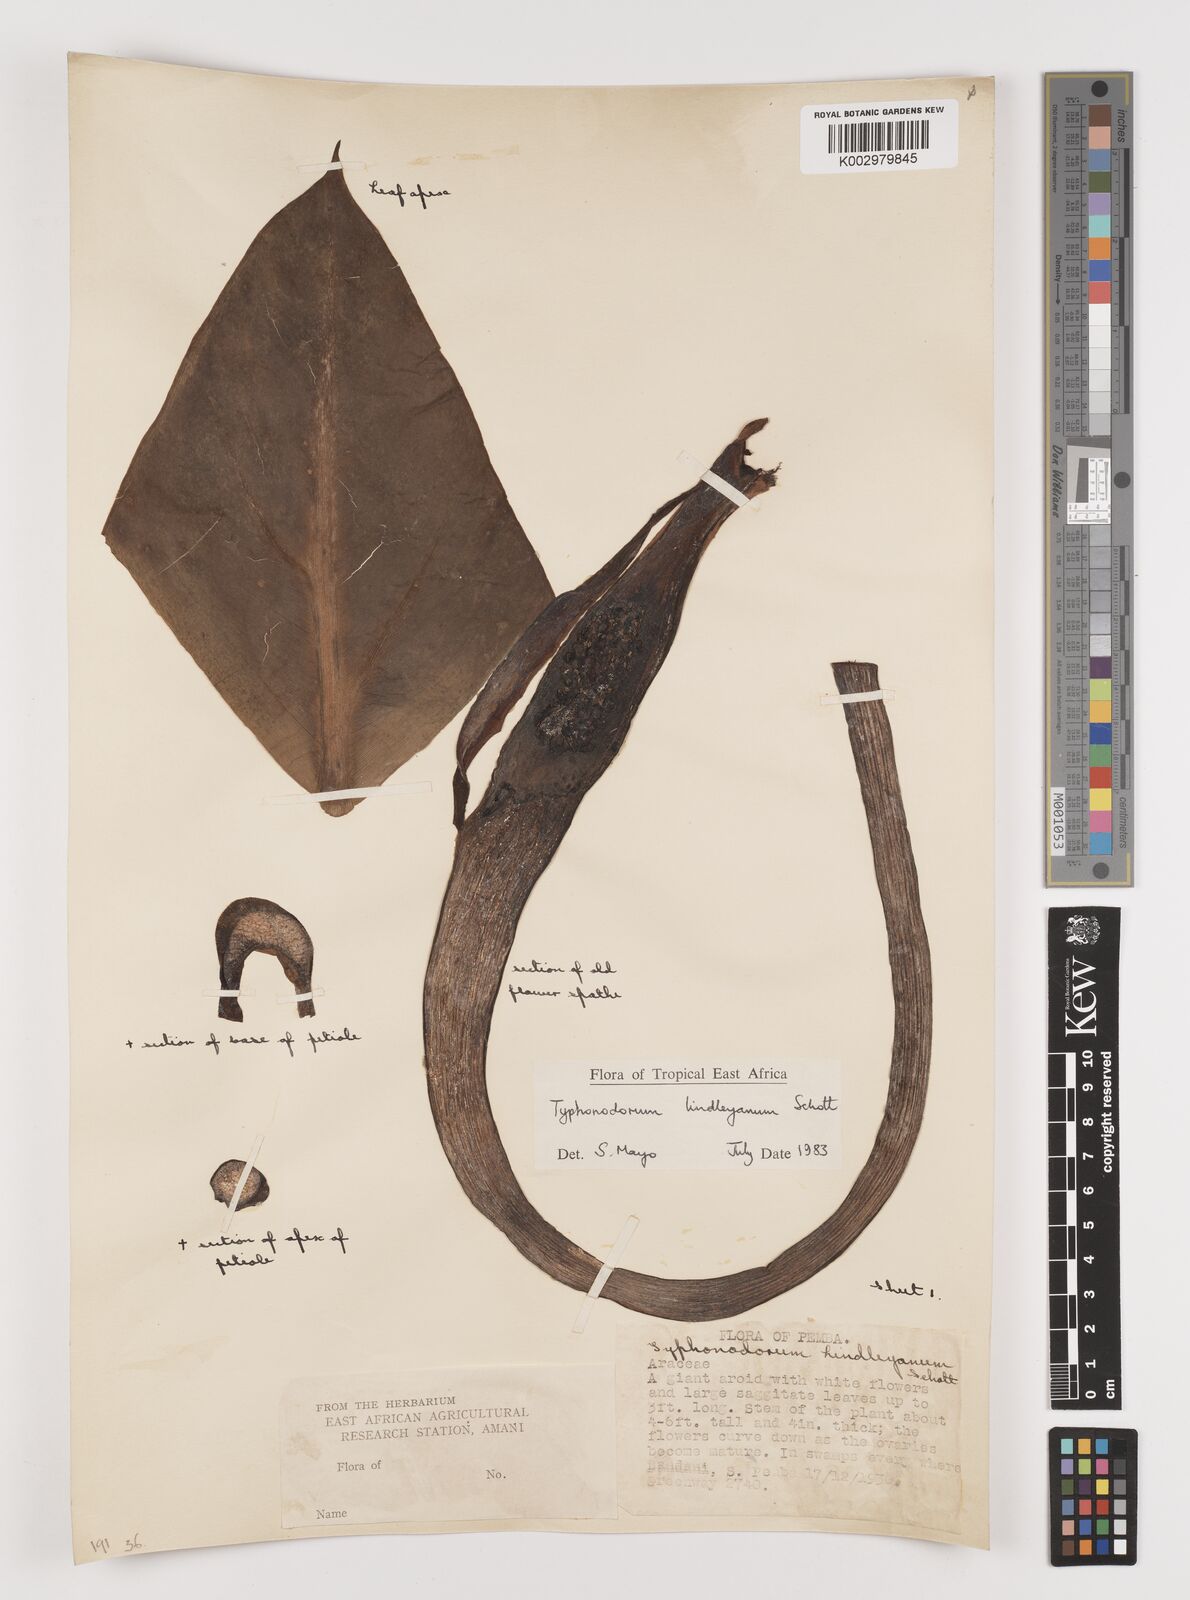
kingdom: Plantae
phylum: Tracheophyta
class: Liliopsida
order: Alismatales
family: Araceae
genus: Typhonodorum
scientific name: Typhonodorum lindleyanum
